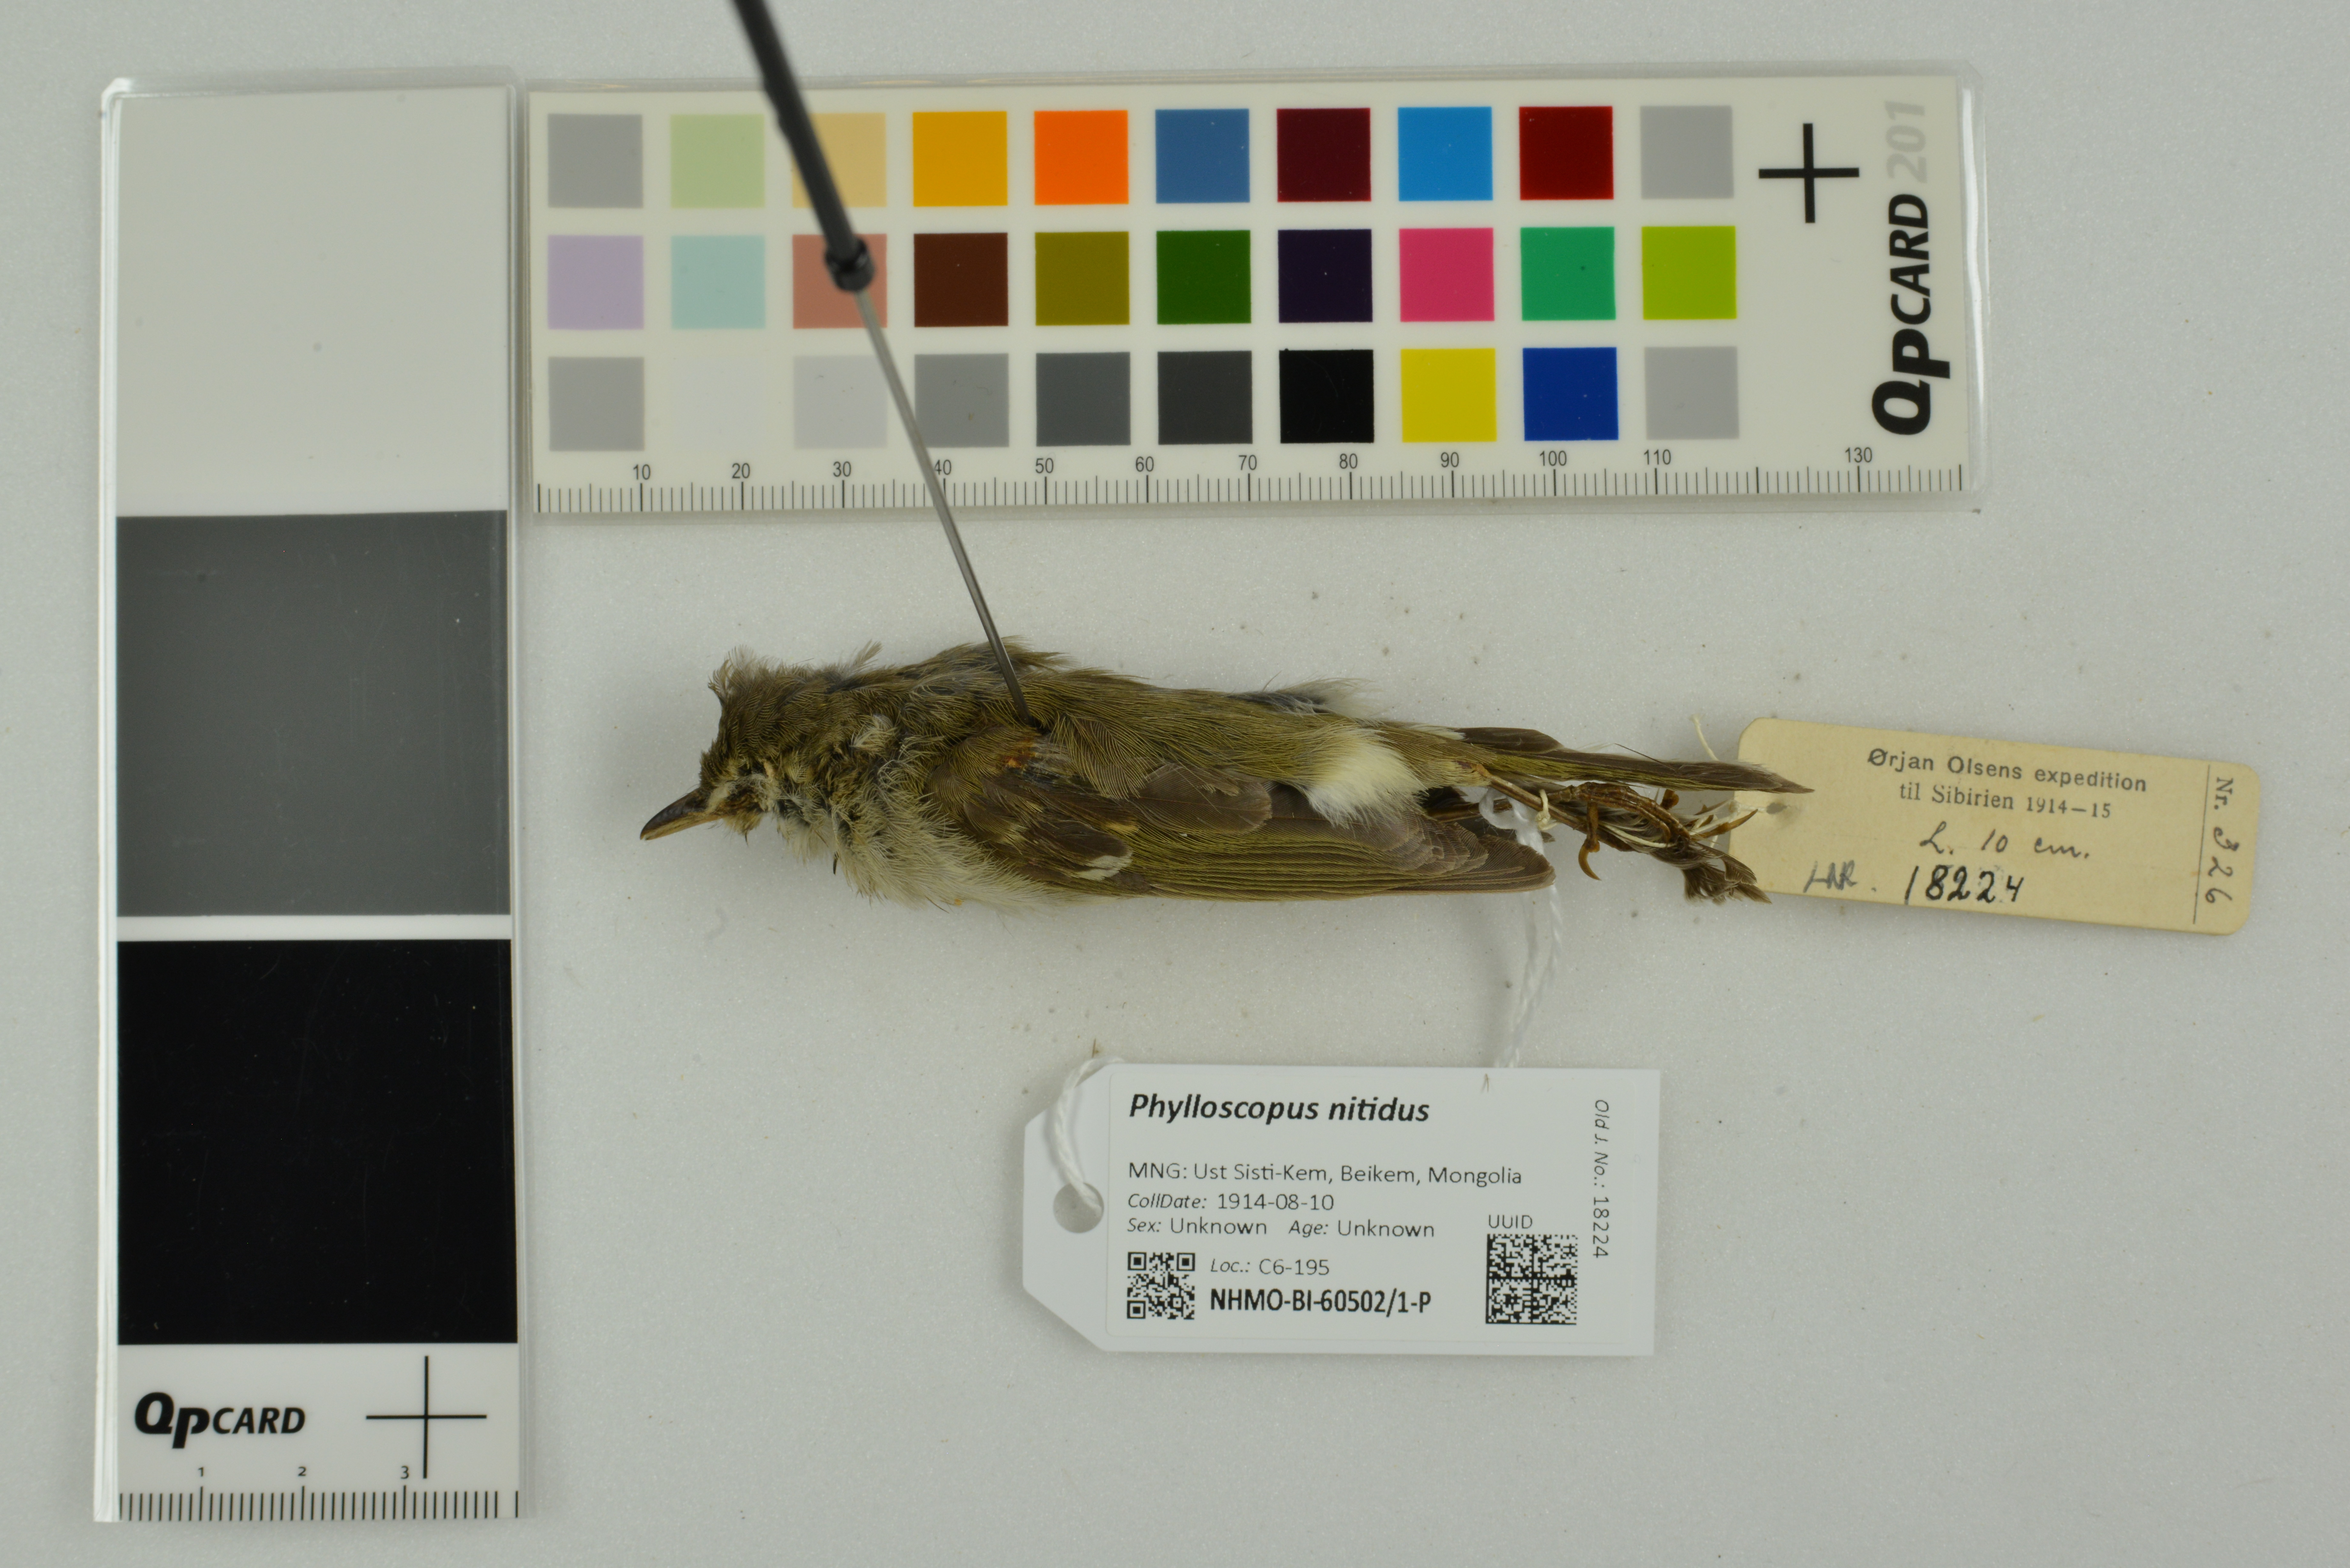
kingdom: Animalia
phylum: Chordata
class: Aves
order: Passeriformes
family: Phylloscopidae
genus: Phylloscopus
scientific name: Phylloscopus nitidus
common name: Green warbler
